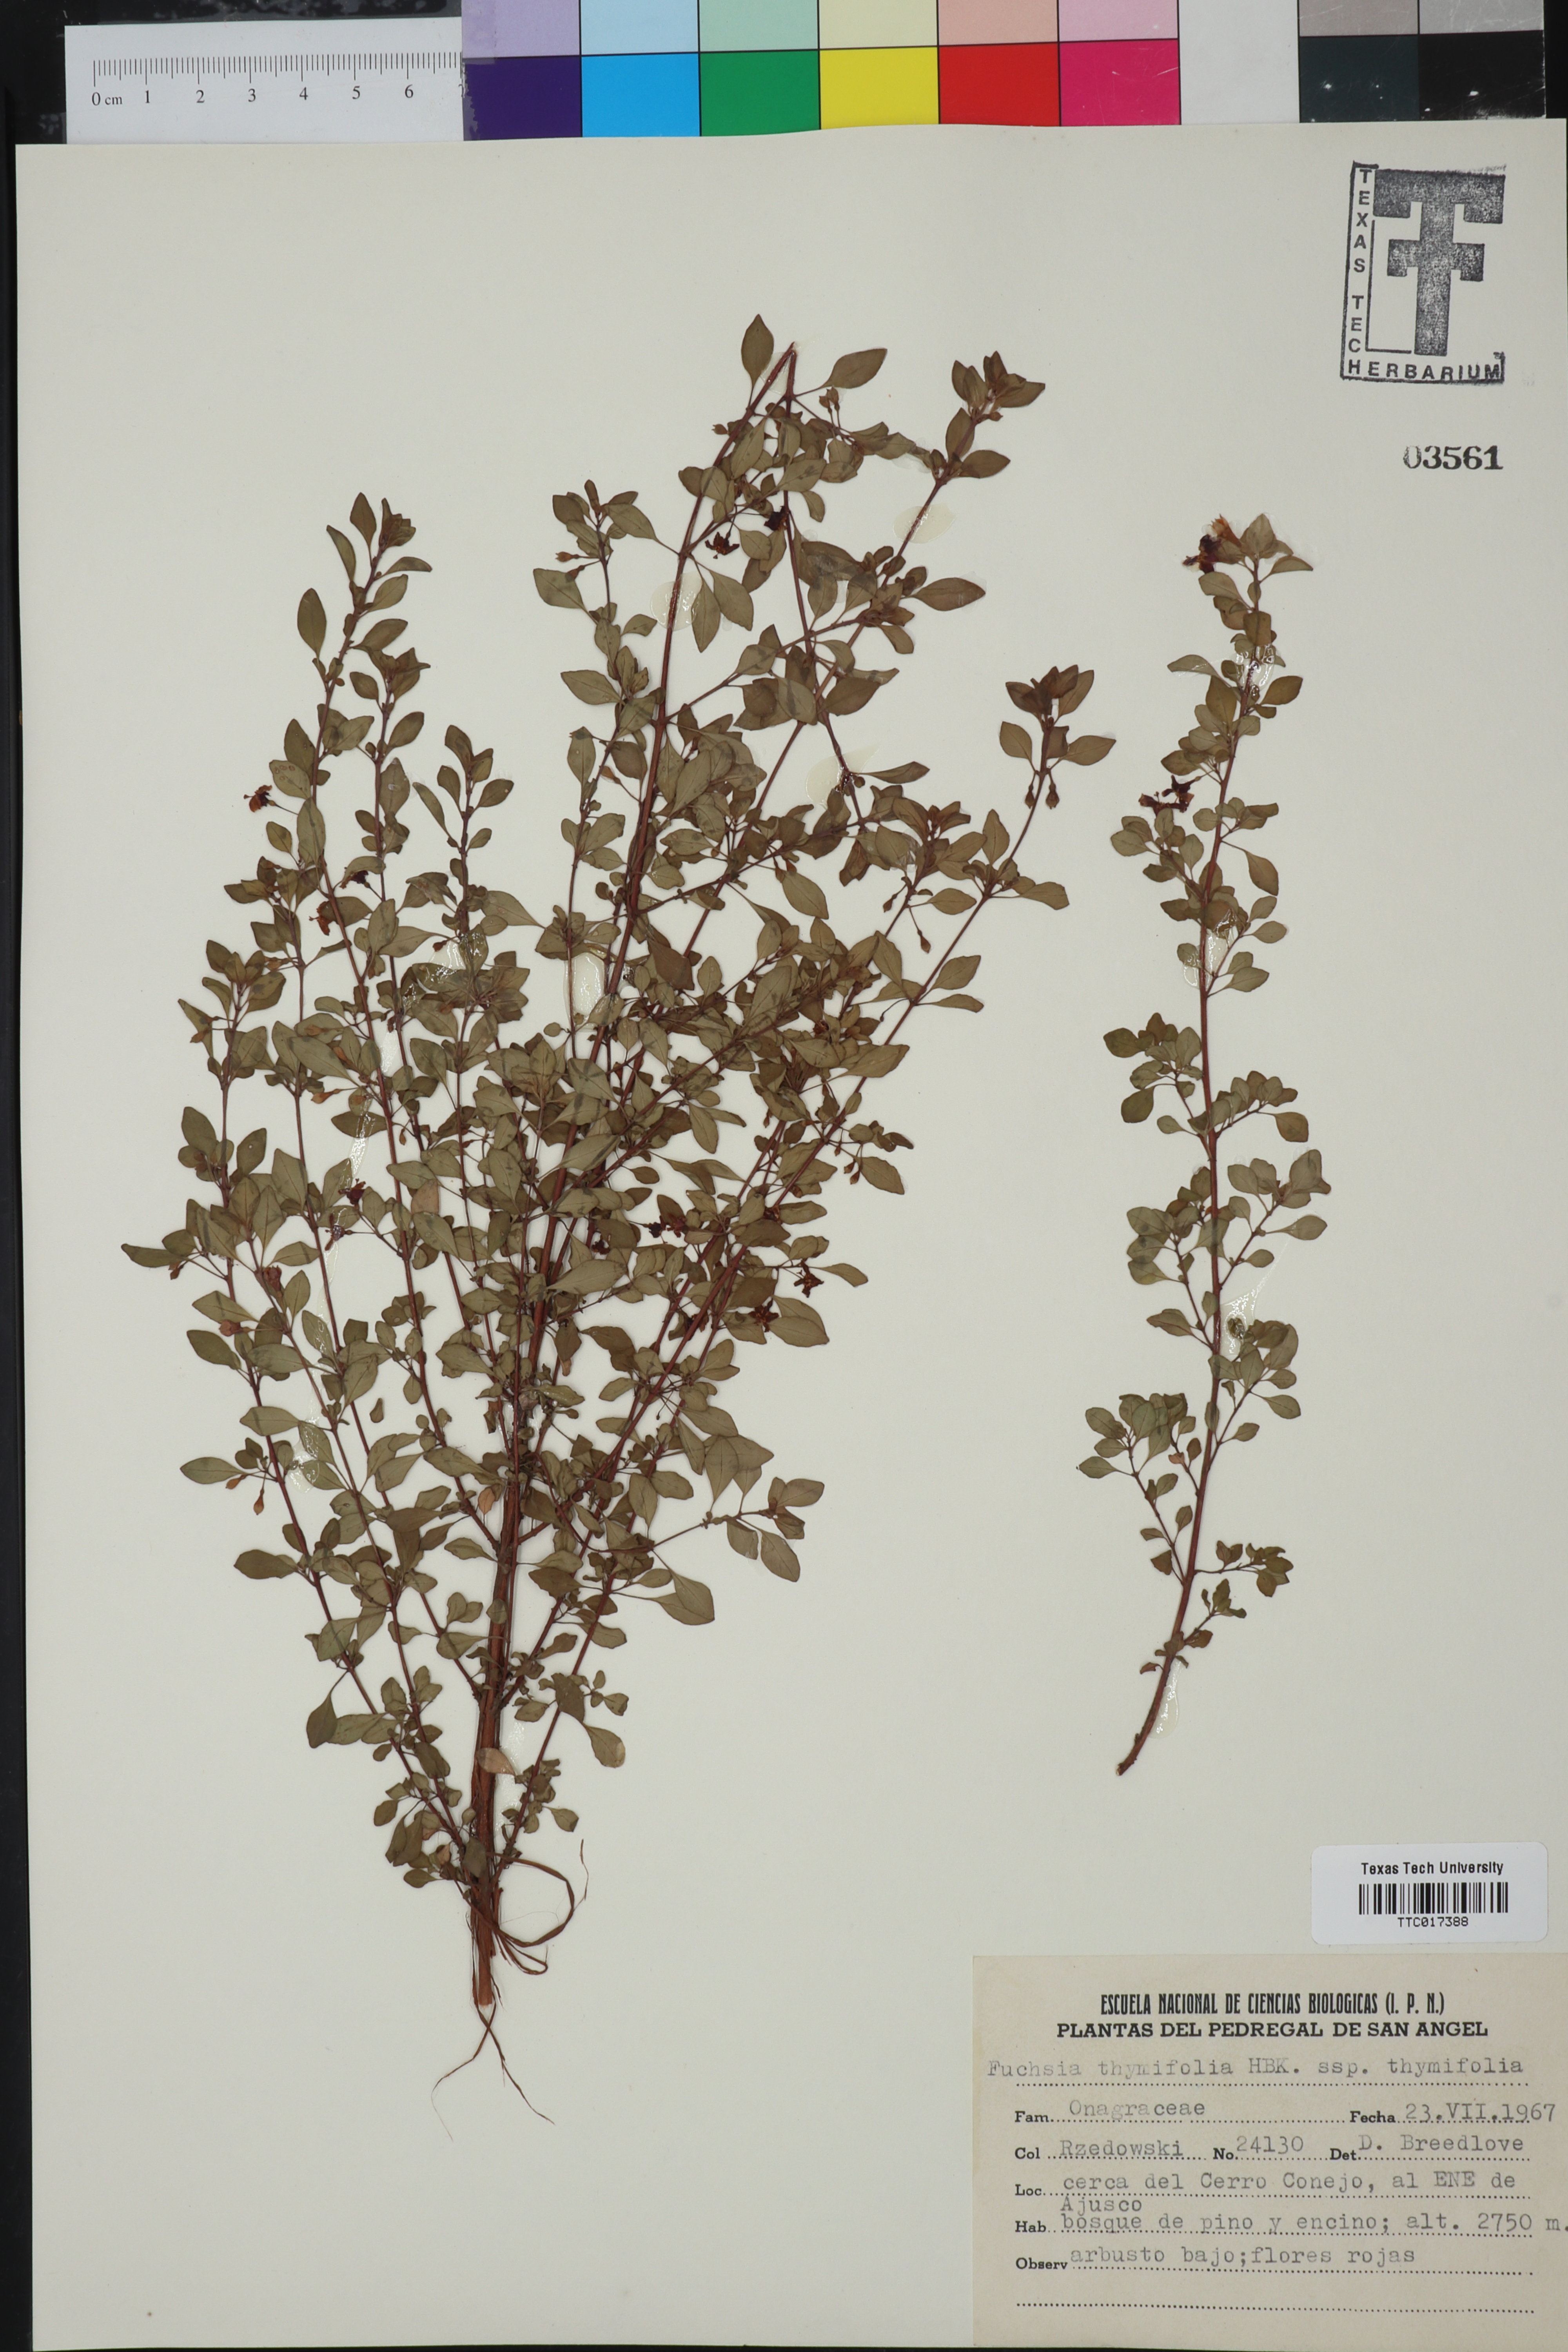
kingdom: Plantae
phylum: Tracheophyta
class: Magnoliopsida
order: Myrtales
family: Onagraceae
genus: Fuchsia
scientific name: Fuchsia thymifolia
